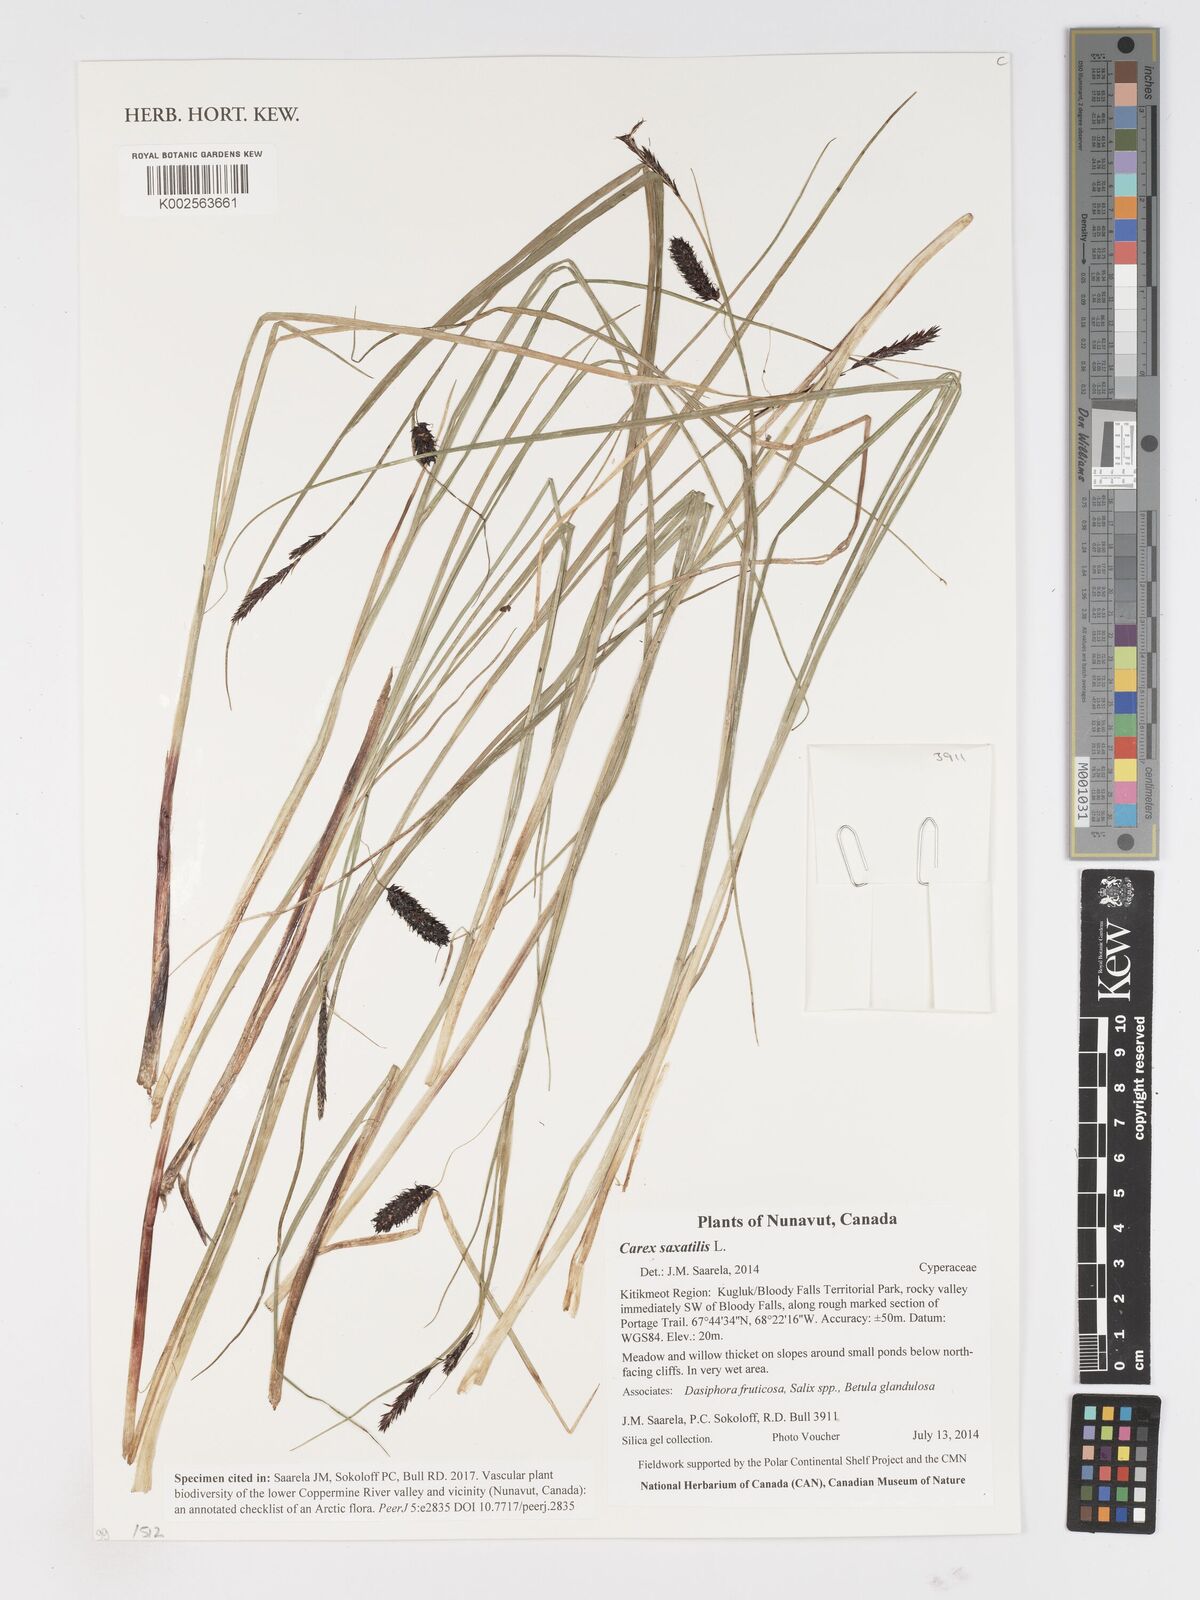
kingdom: Plantae
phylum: Tracheophyta
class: Liliopsida
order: Poales
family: Cyperaceae
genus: Carex
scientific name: Carex saxatilis
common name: Russet sedge
